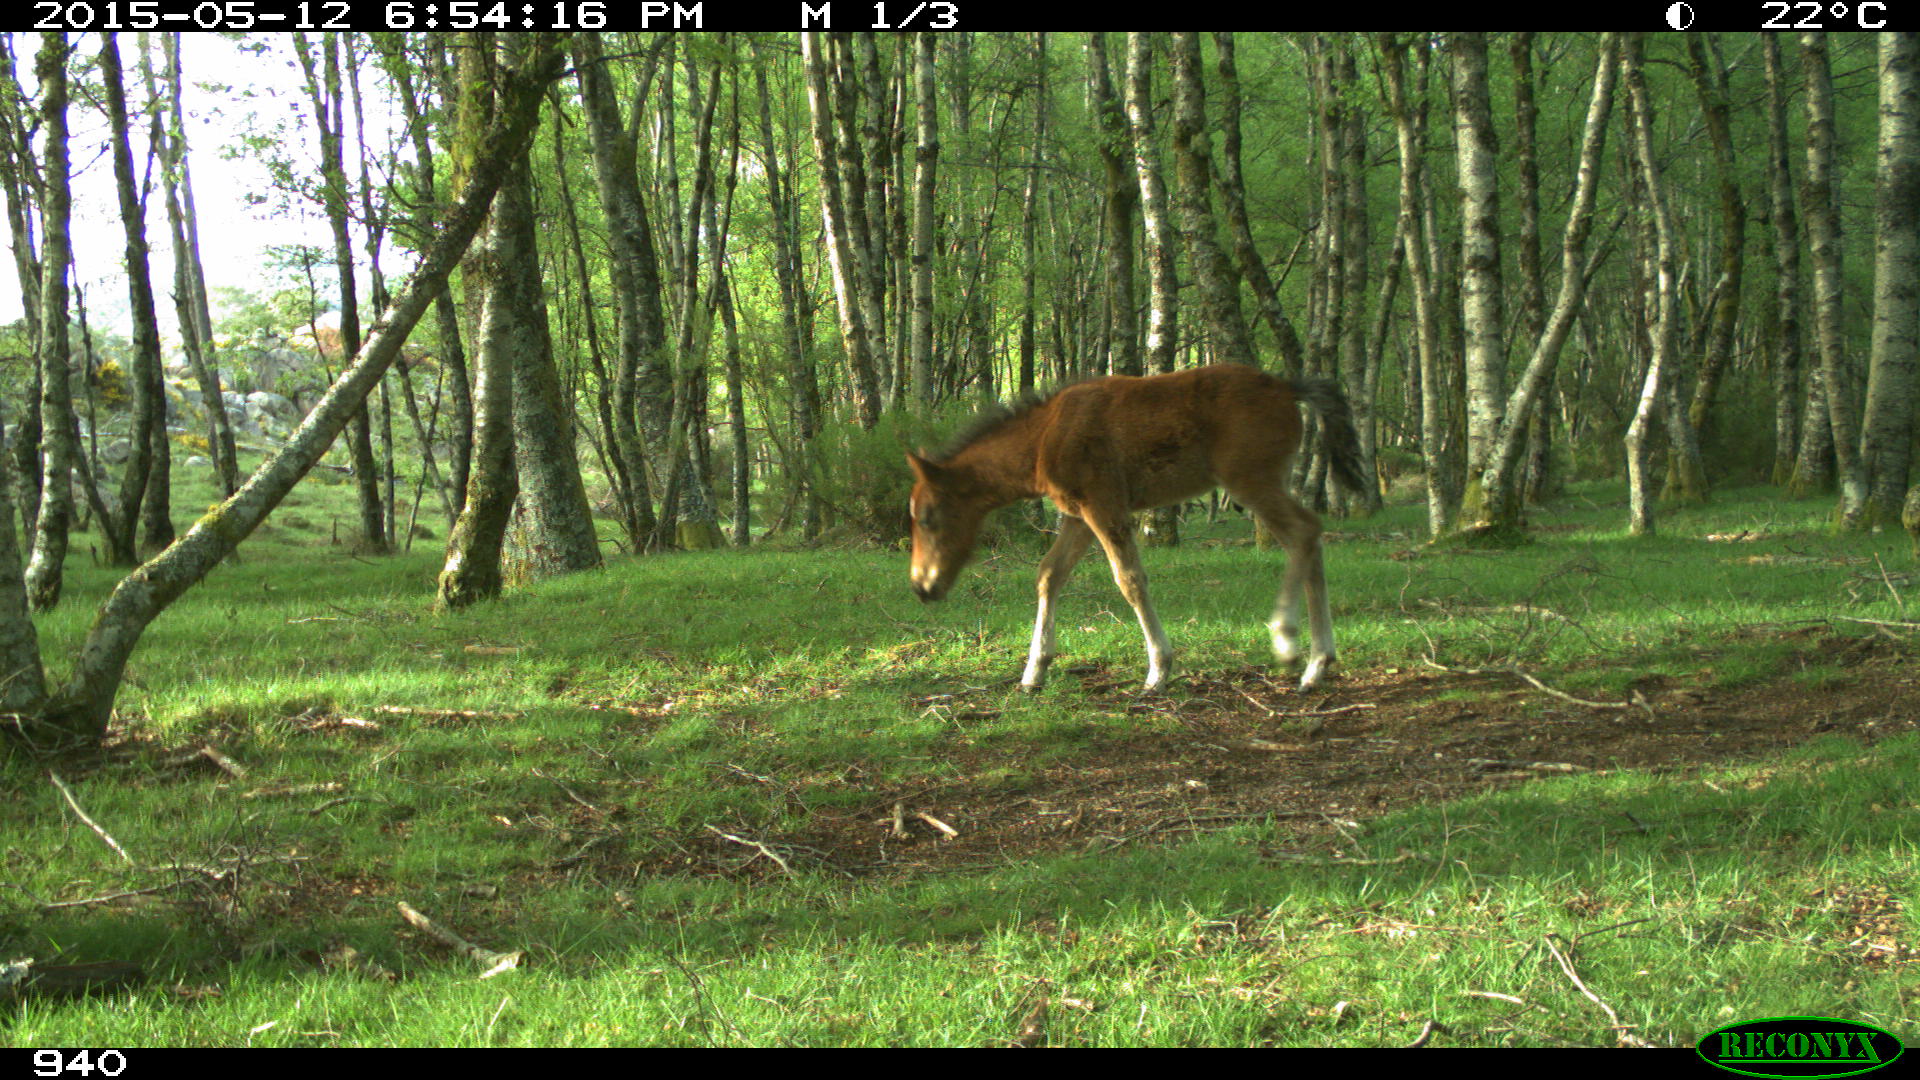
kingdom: Animalia
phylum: Chordata
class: Mammalia
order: Perissodactyla
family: Equidae
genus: Equus
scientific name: Equus caballus
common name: Horse
